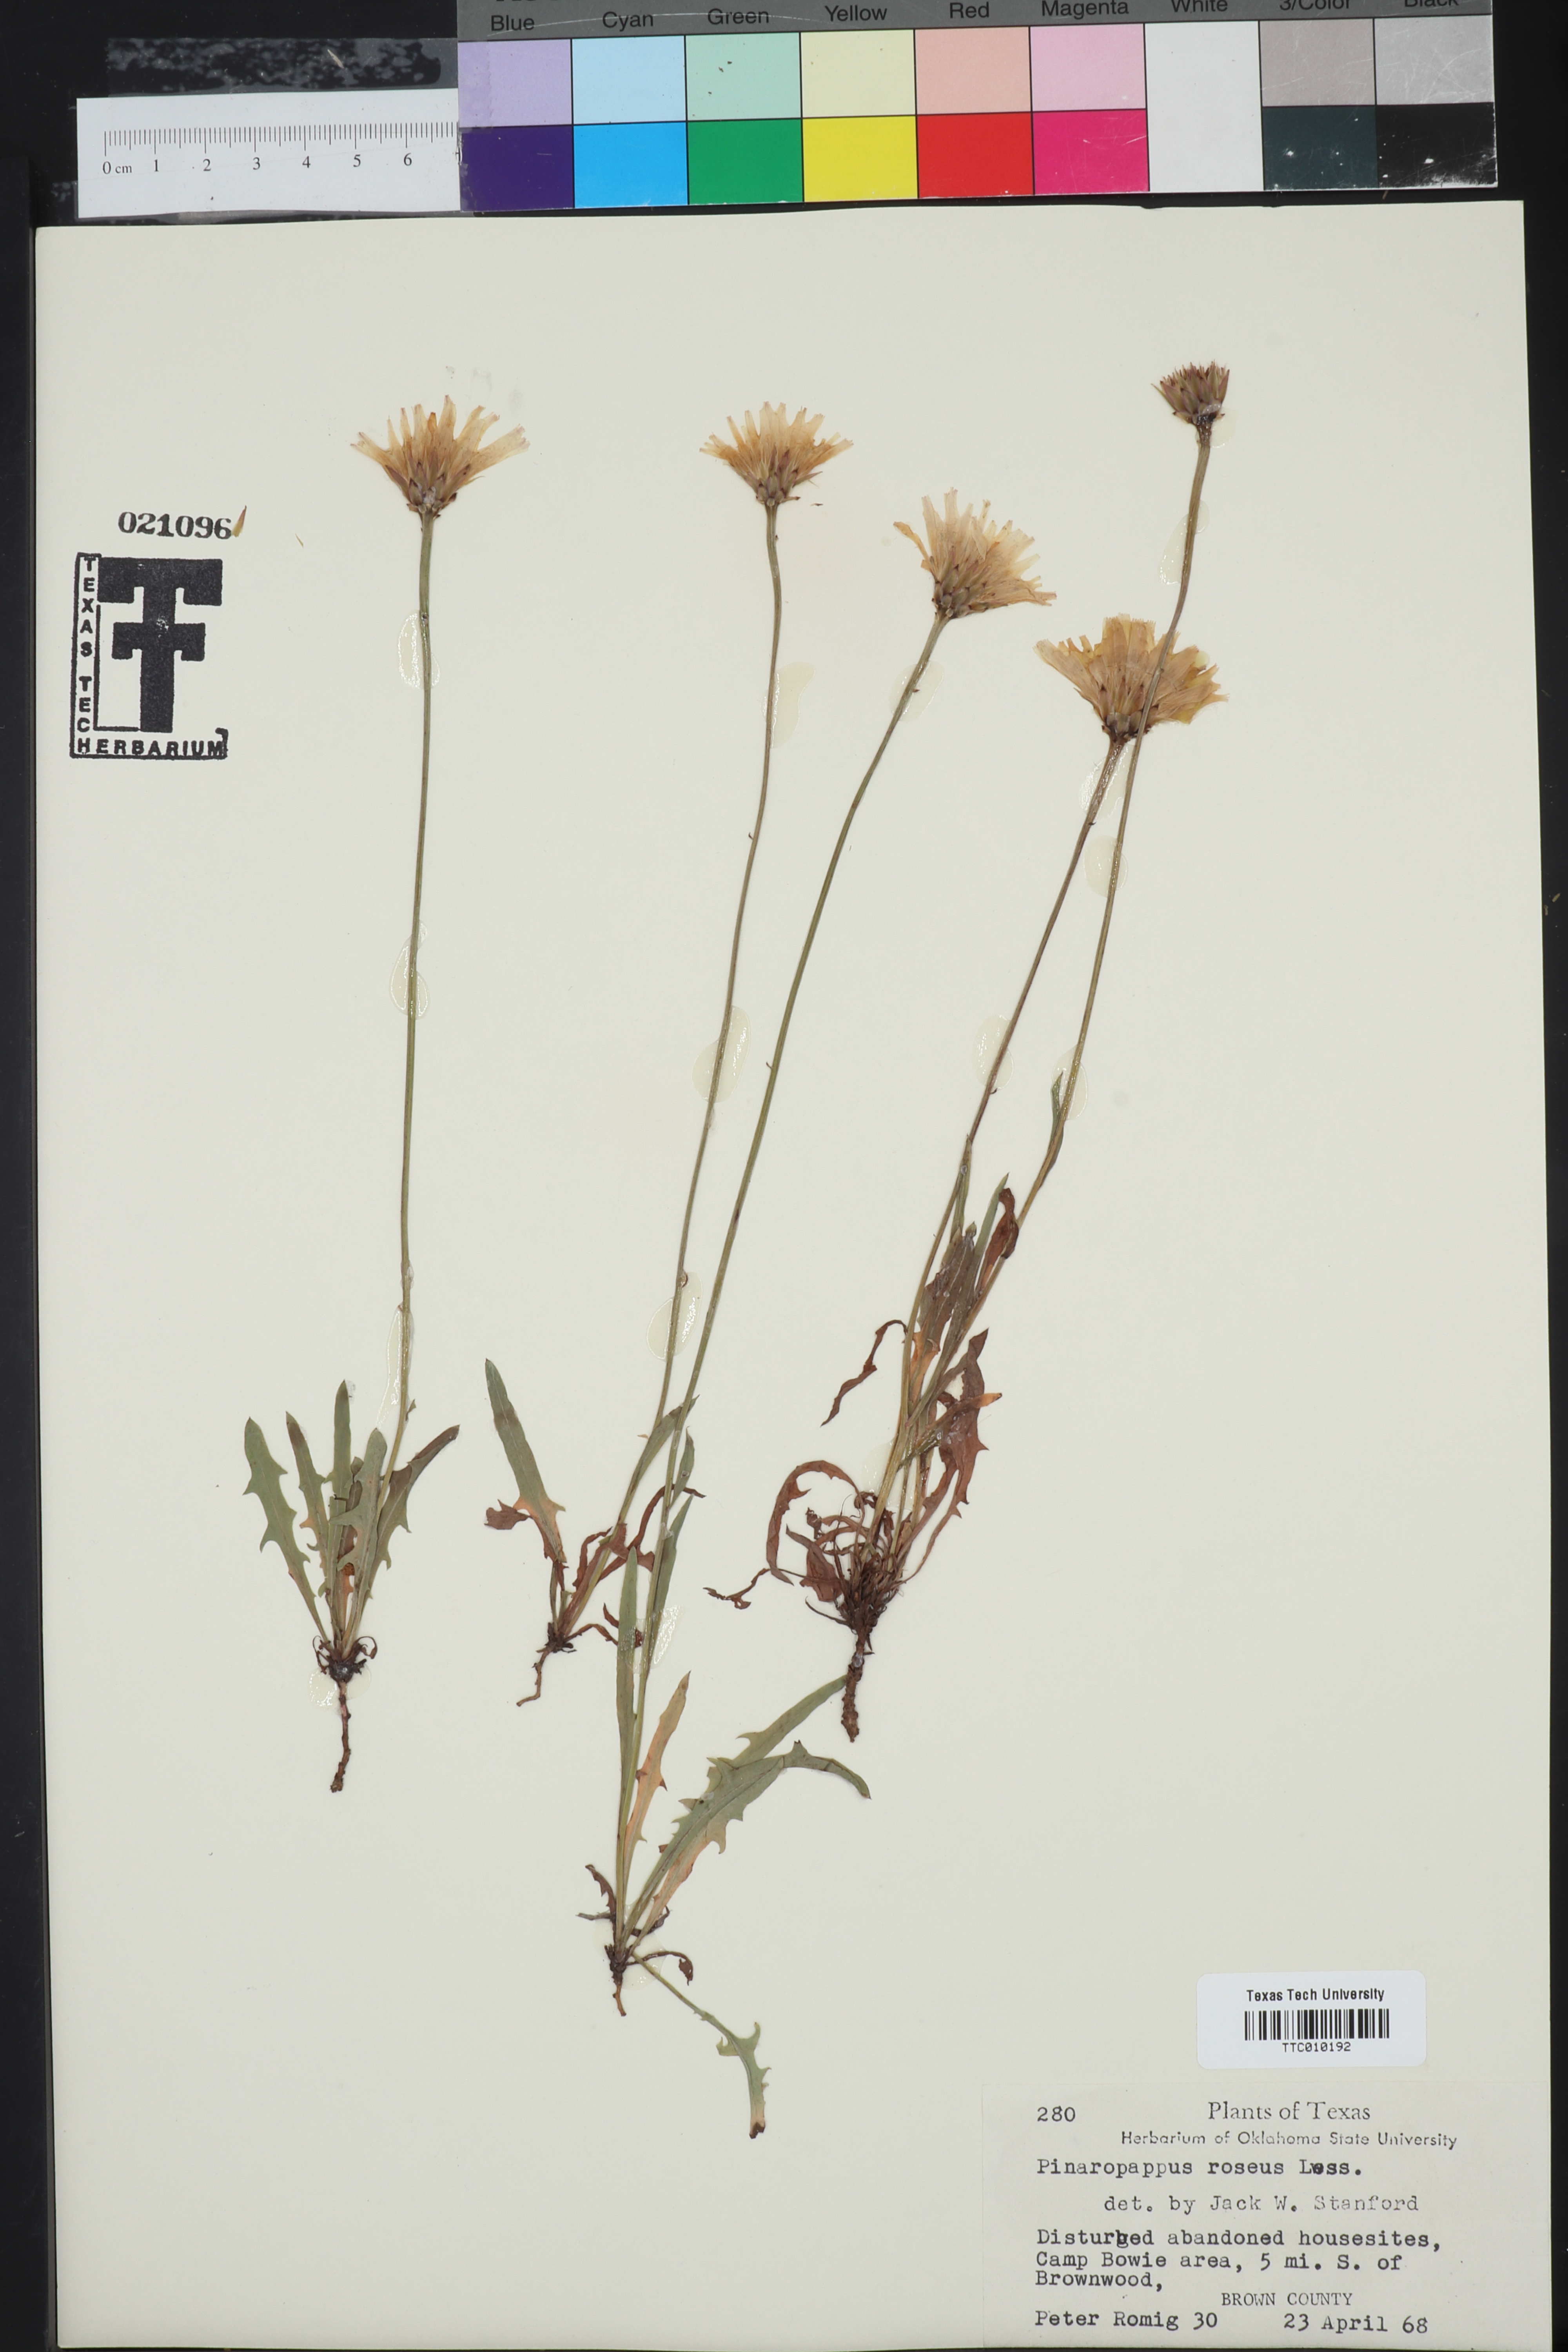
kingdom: Plantae
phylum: Tracheophyta
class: Magnoliopsida
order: Asterales
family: Asteraceae
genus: Pinaropappus
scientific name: Pinaropappus roseus
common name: Rock-lettuce
